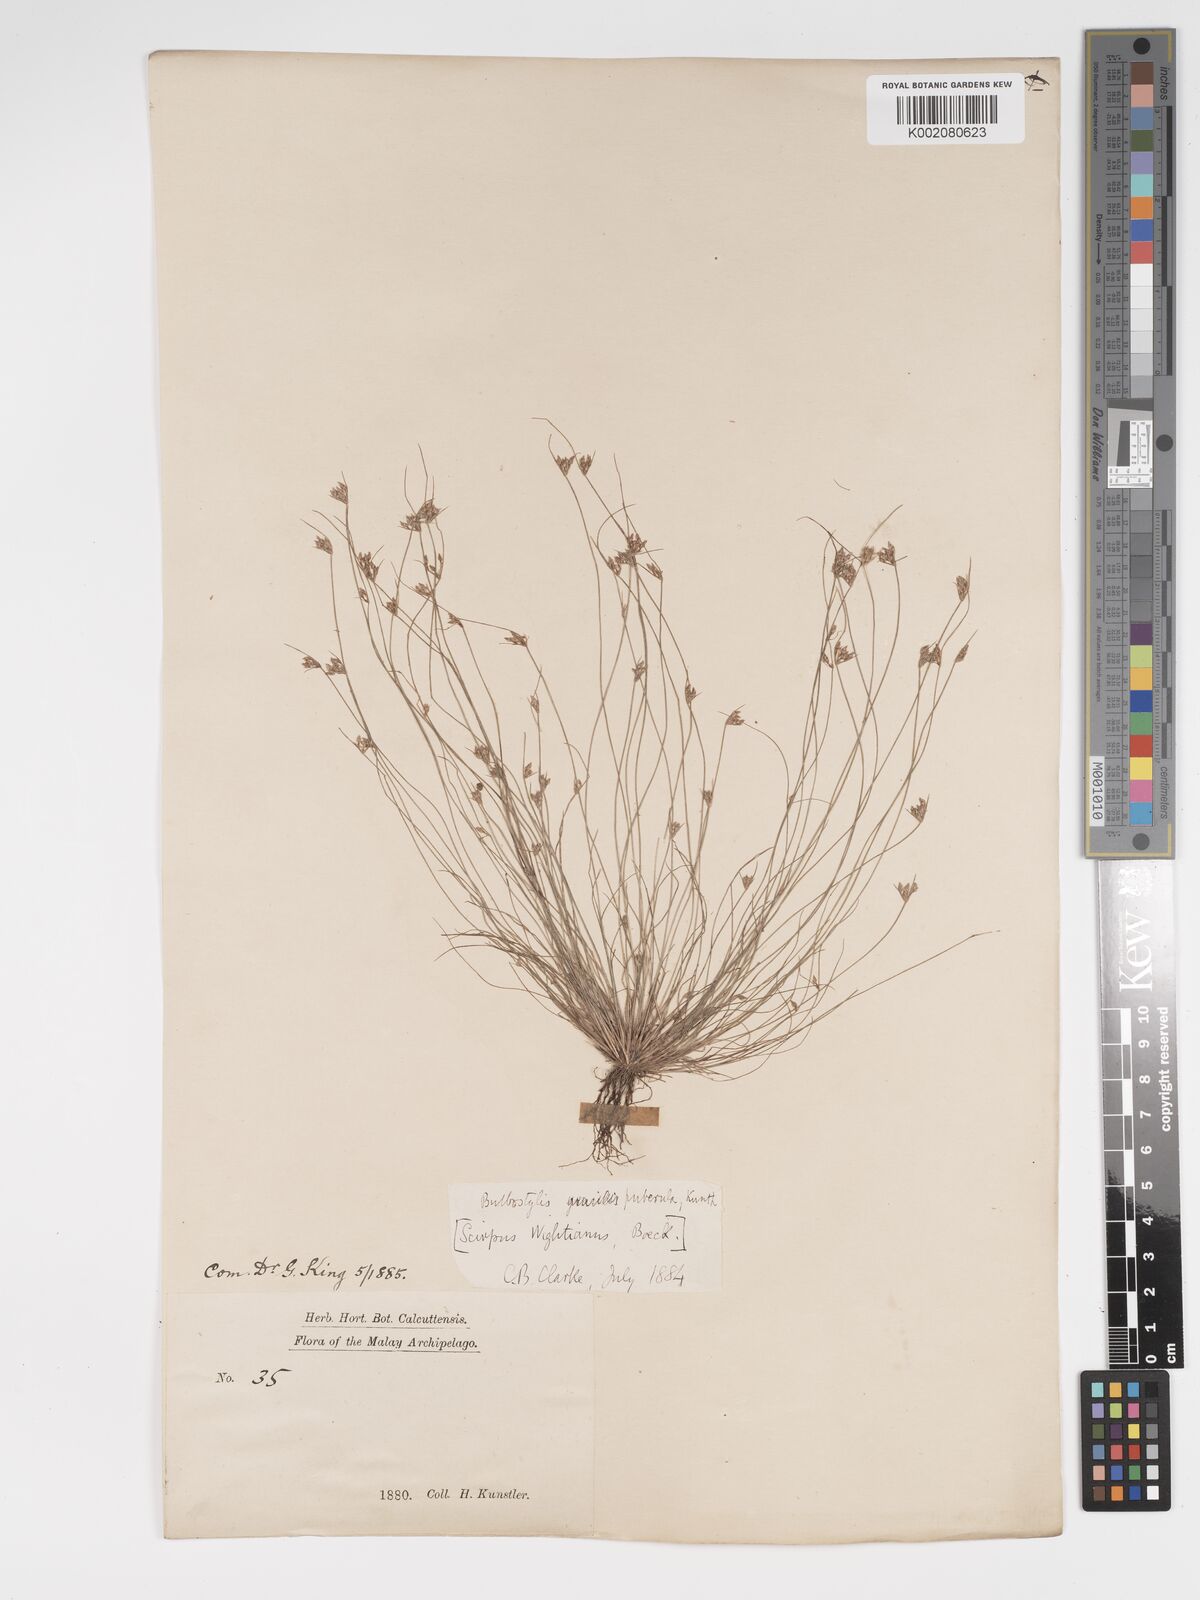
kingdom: Plantae
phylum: Tracheophyta
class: Liliopsida
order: Poales
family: Cyperaceae
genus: Bulbostylis
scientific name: Bulbostylis thouarsii
